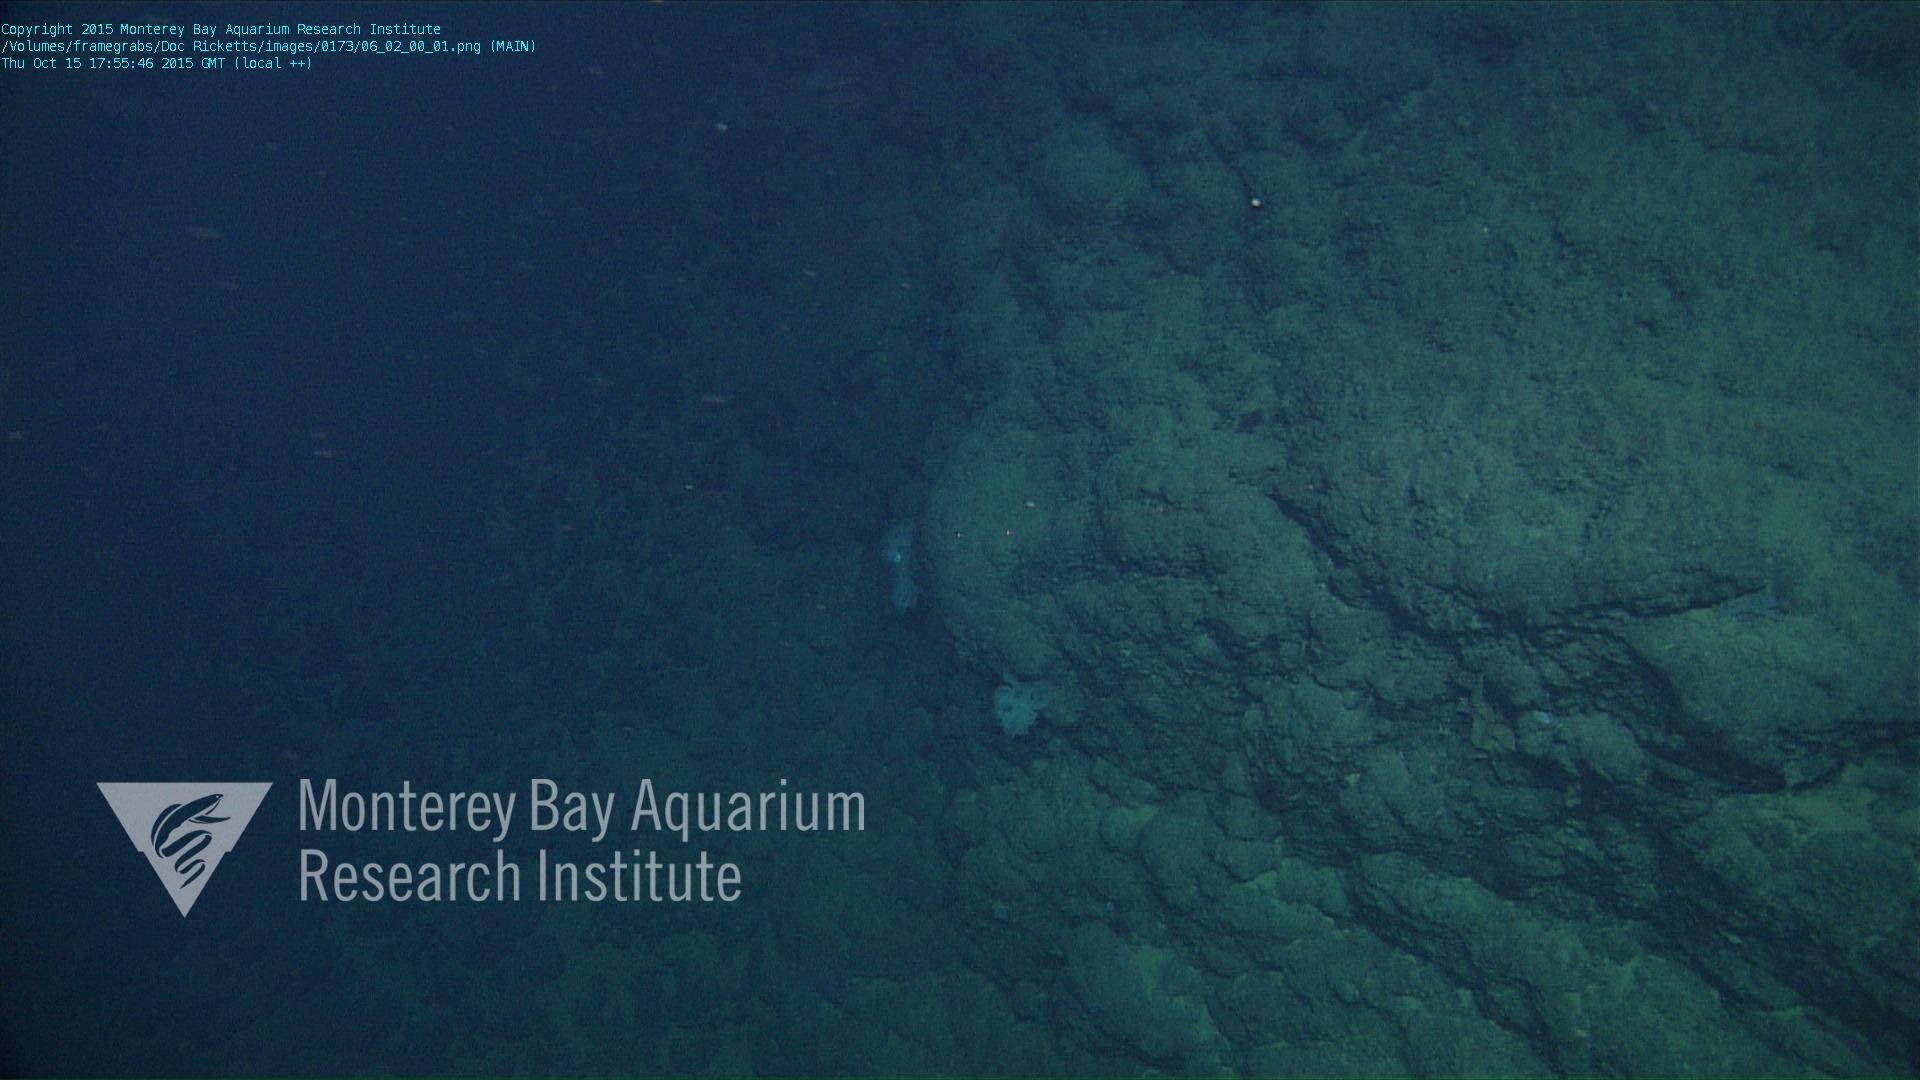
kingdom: Animalia
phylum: Porifera
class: Hexactinellida
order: Sceptrulophora
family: Farreidae
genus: Farrea
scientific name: Farrea occa
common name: Reversed glass sponge
